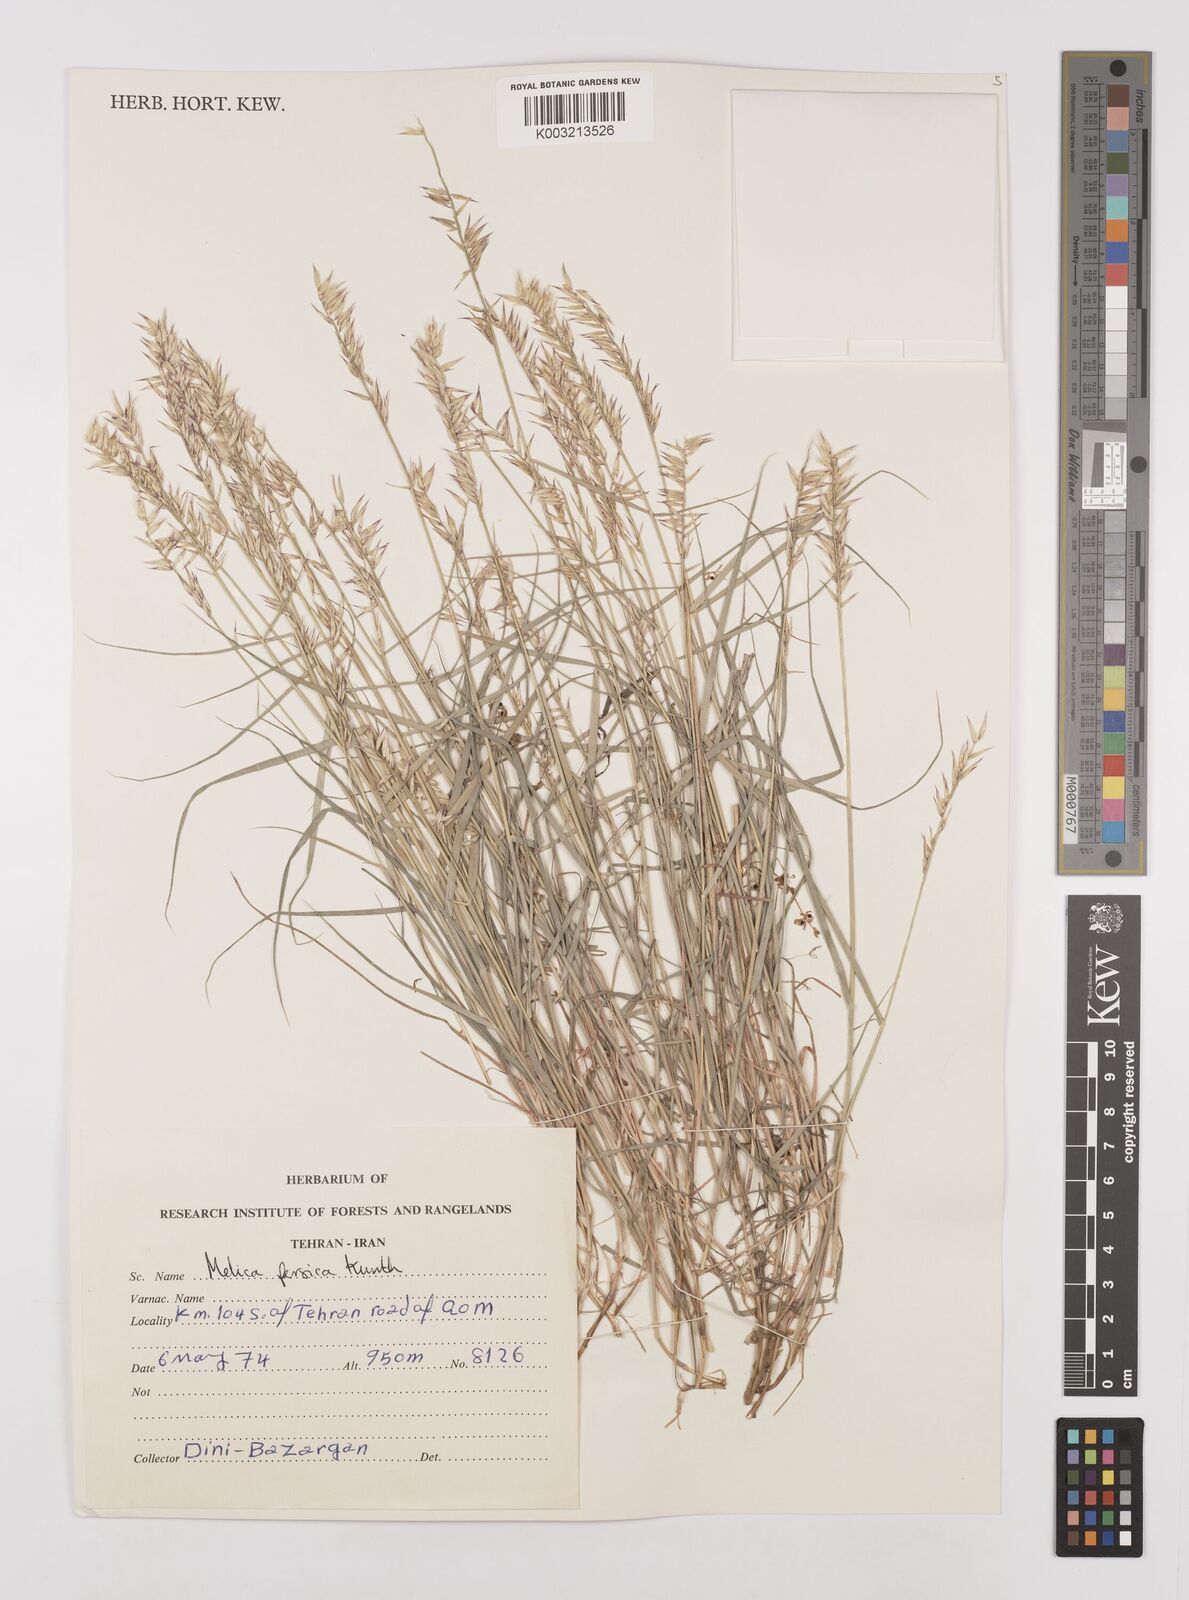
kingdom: Plantae
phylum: Tracheophyta
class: Liliopsida
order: Poales
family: Poaceae
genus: Melica
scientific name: Melica persica
